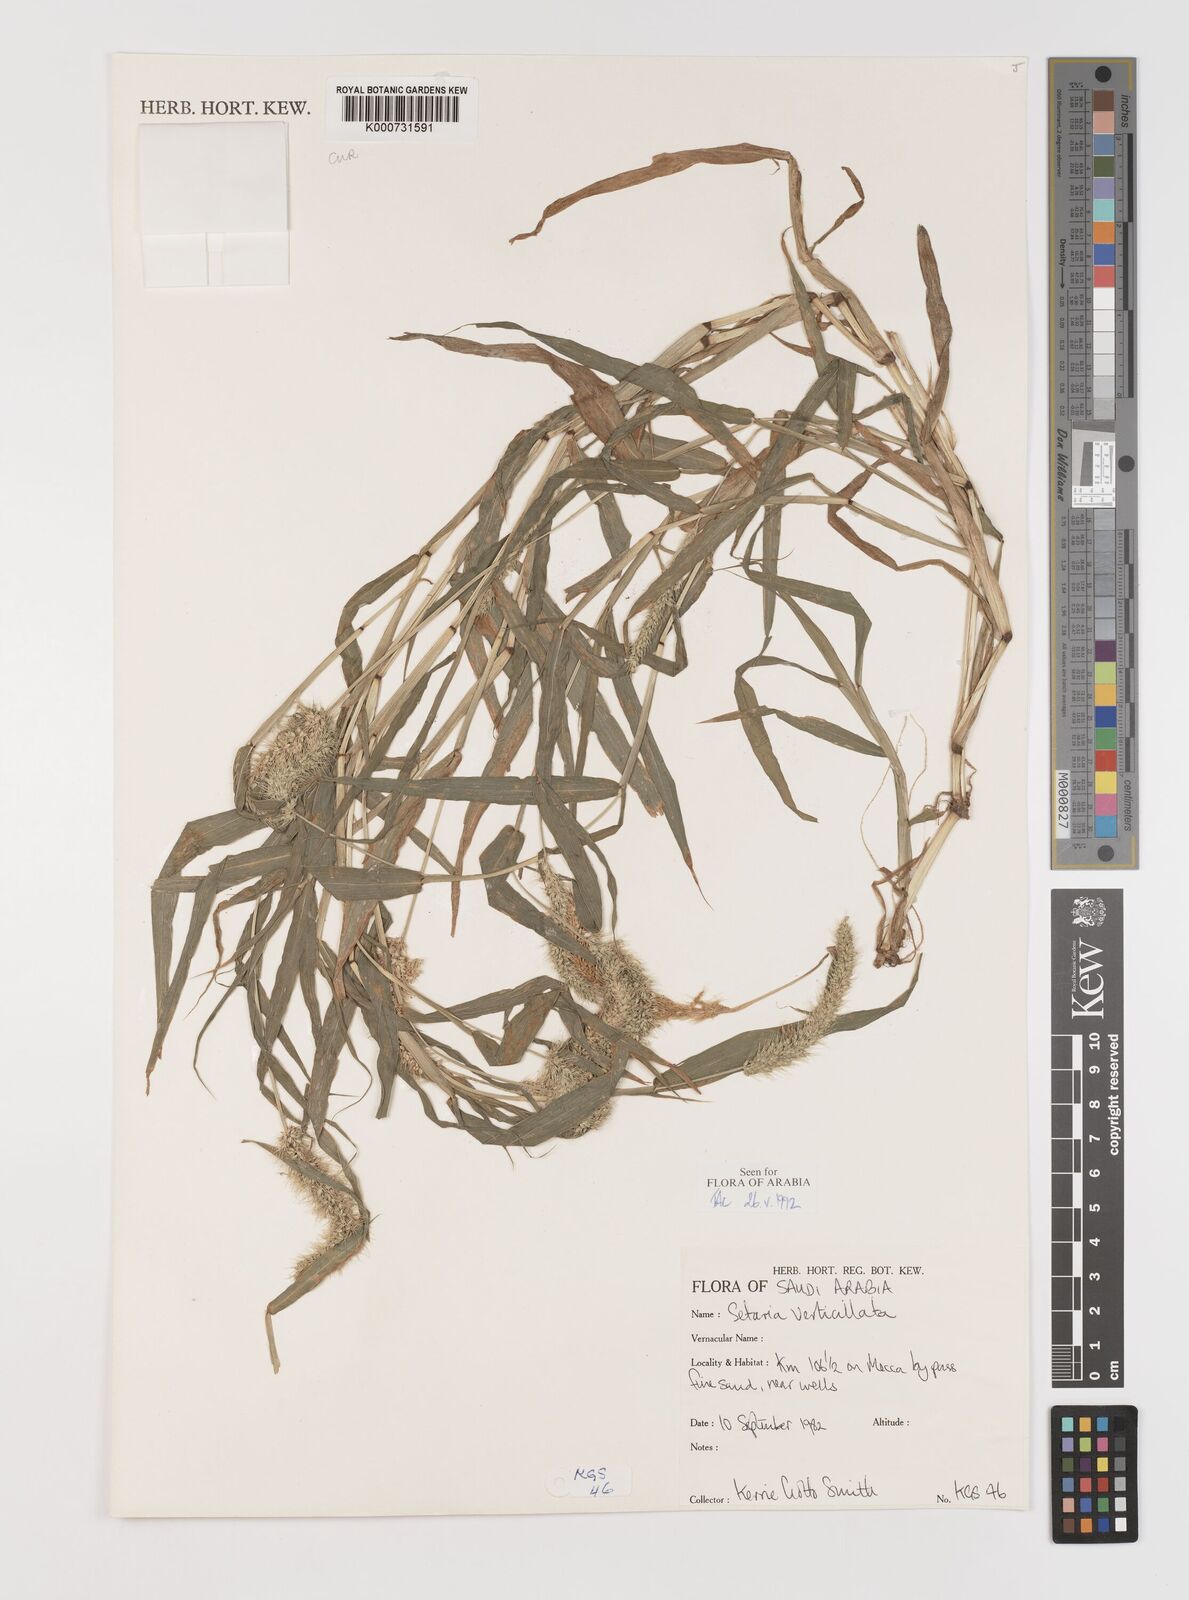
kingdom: Plantae
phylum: Tracheophyta
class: Liliopsida
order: Poales
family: Poaceae
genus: Setaria
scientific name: Setaria verticillata
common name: Hooked bristlegrass
